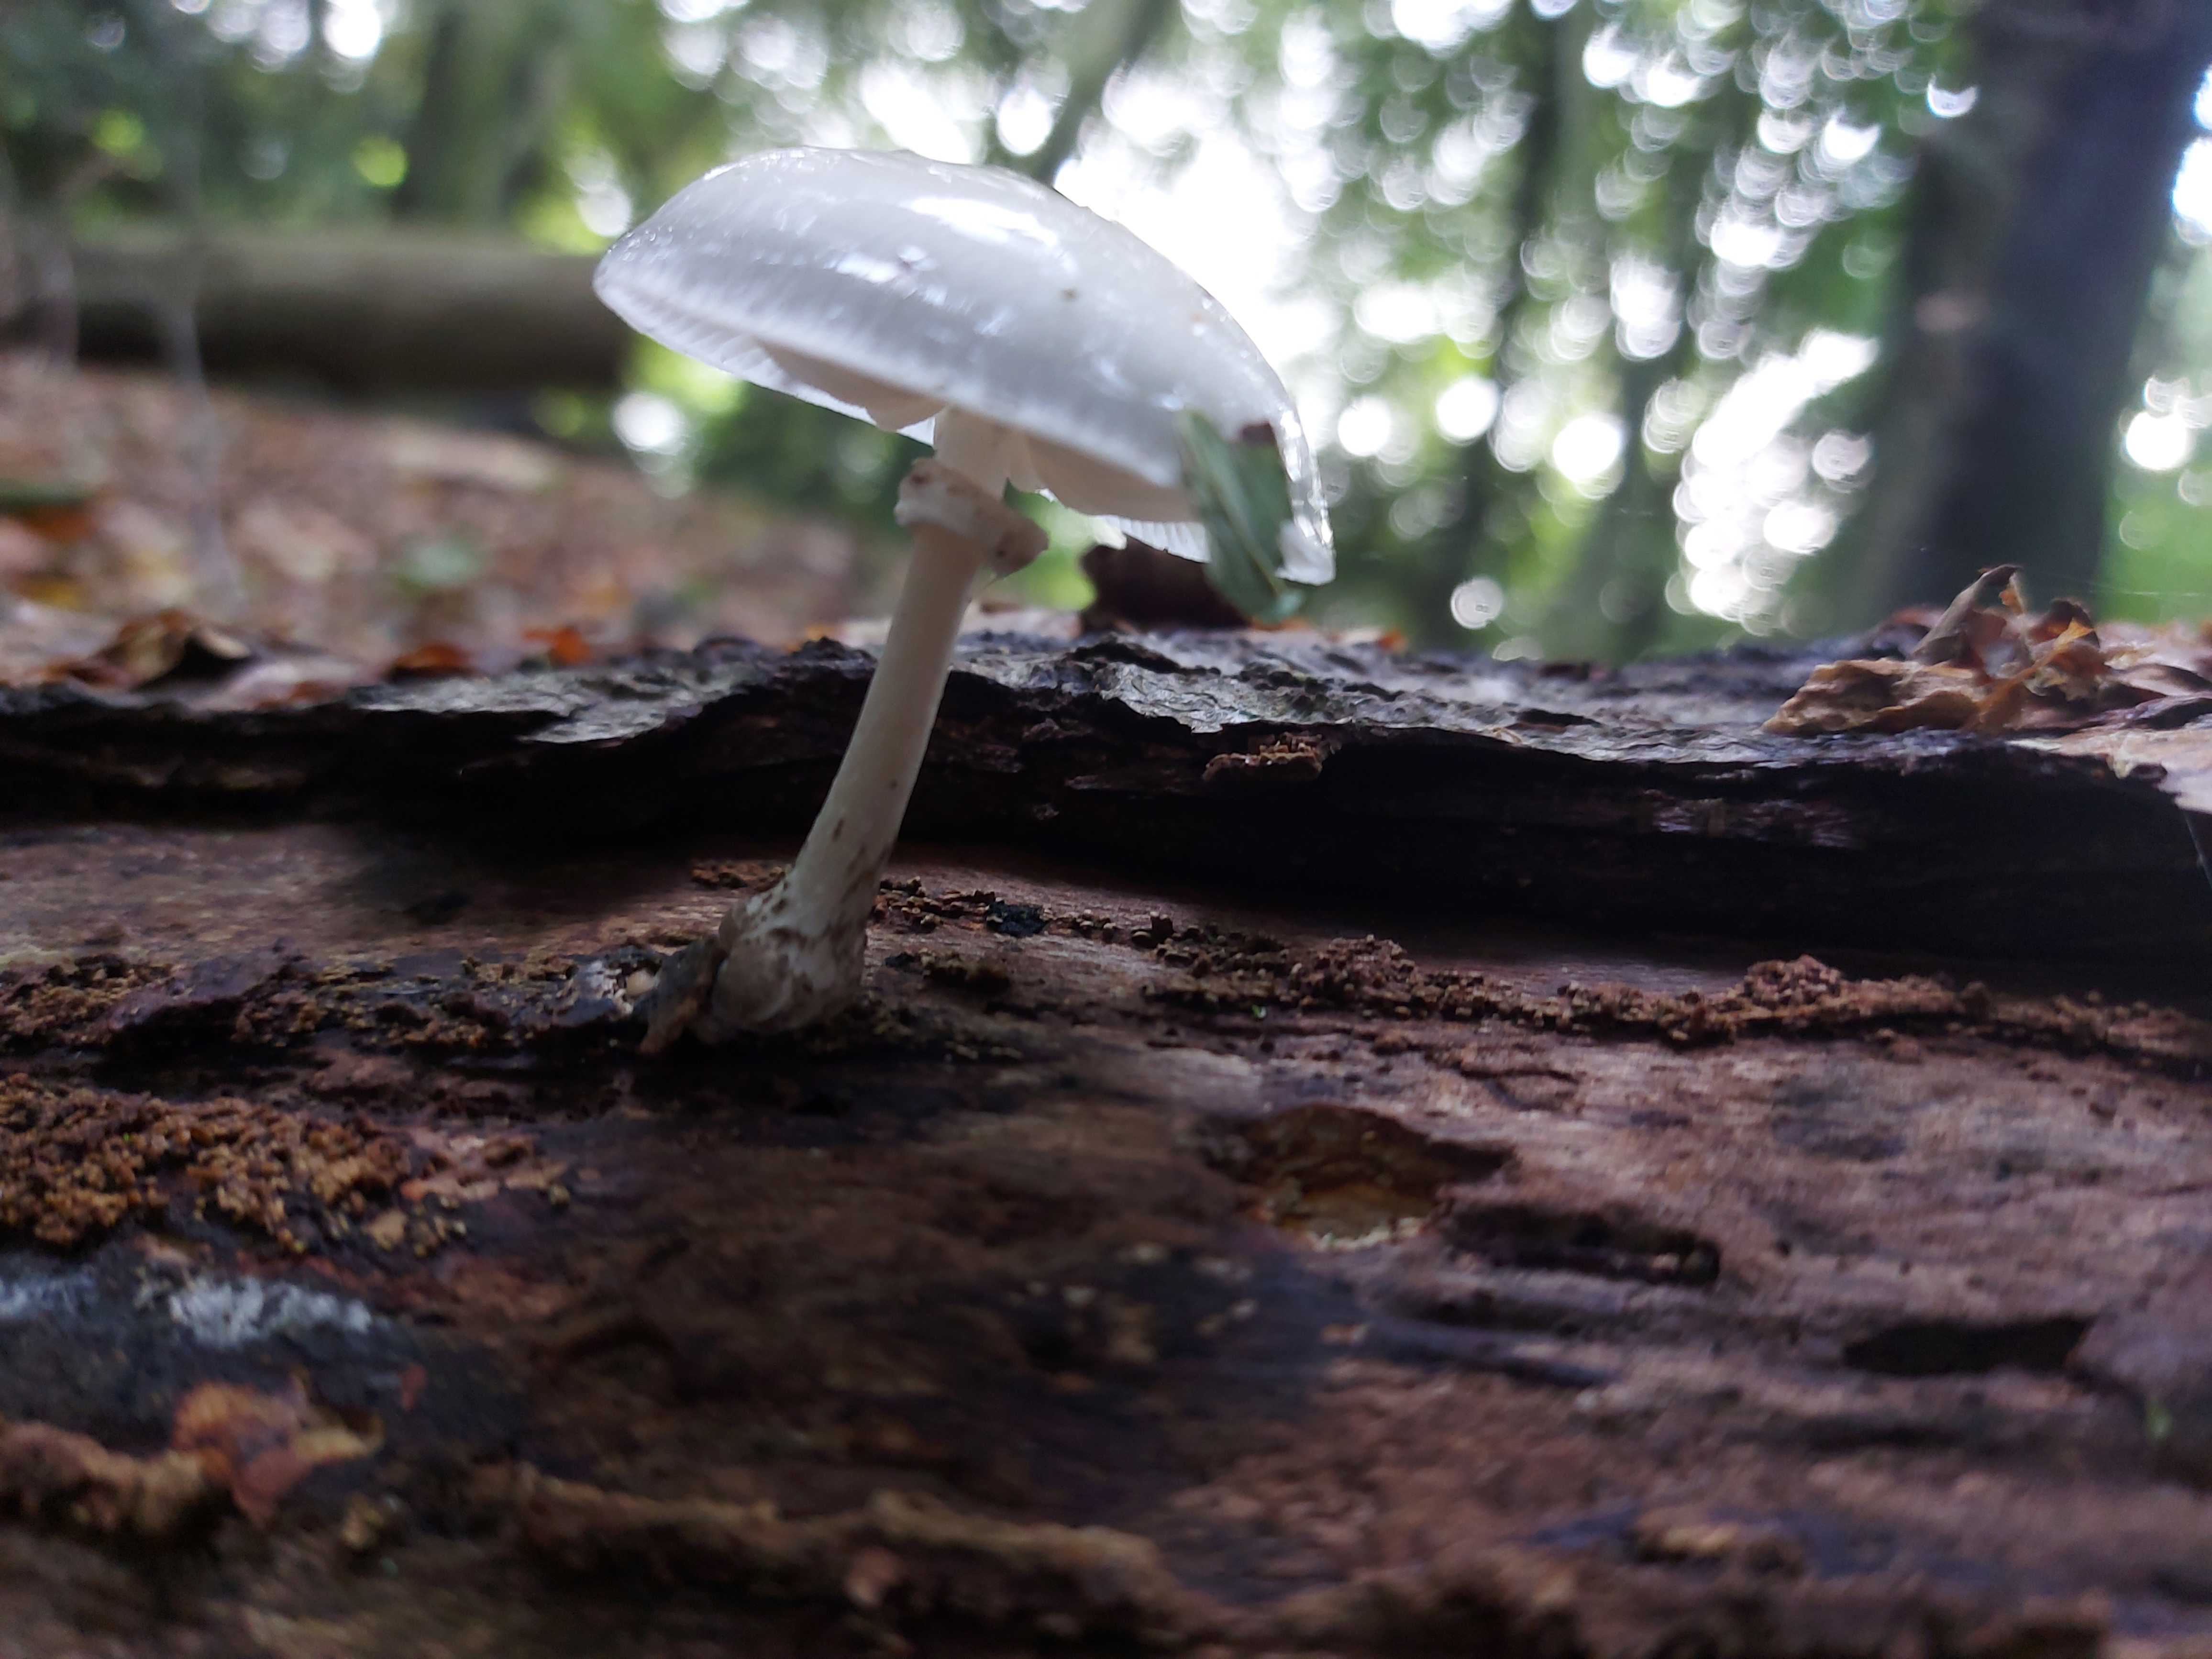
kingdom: Fungi
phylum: Basidiomycota
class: Agaricomycetes
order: Agaricales
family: Physalacriaceae
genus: Mucidula
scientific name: Mucidula mucida
